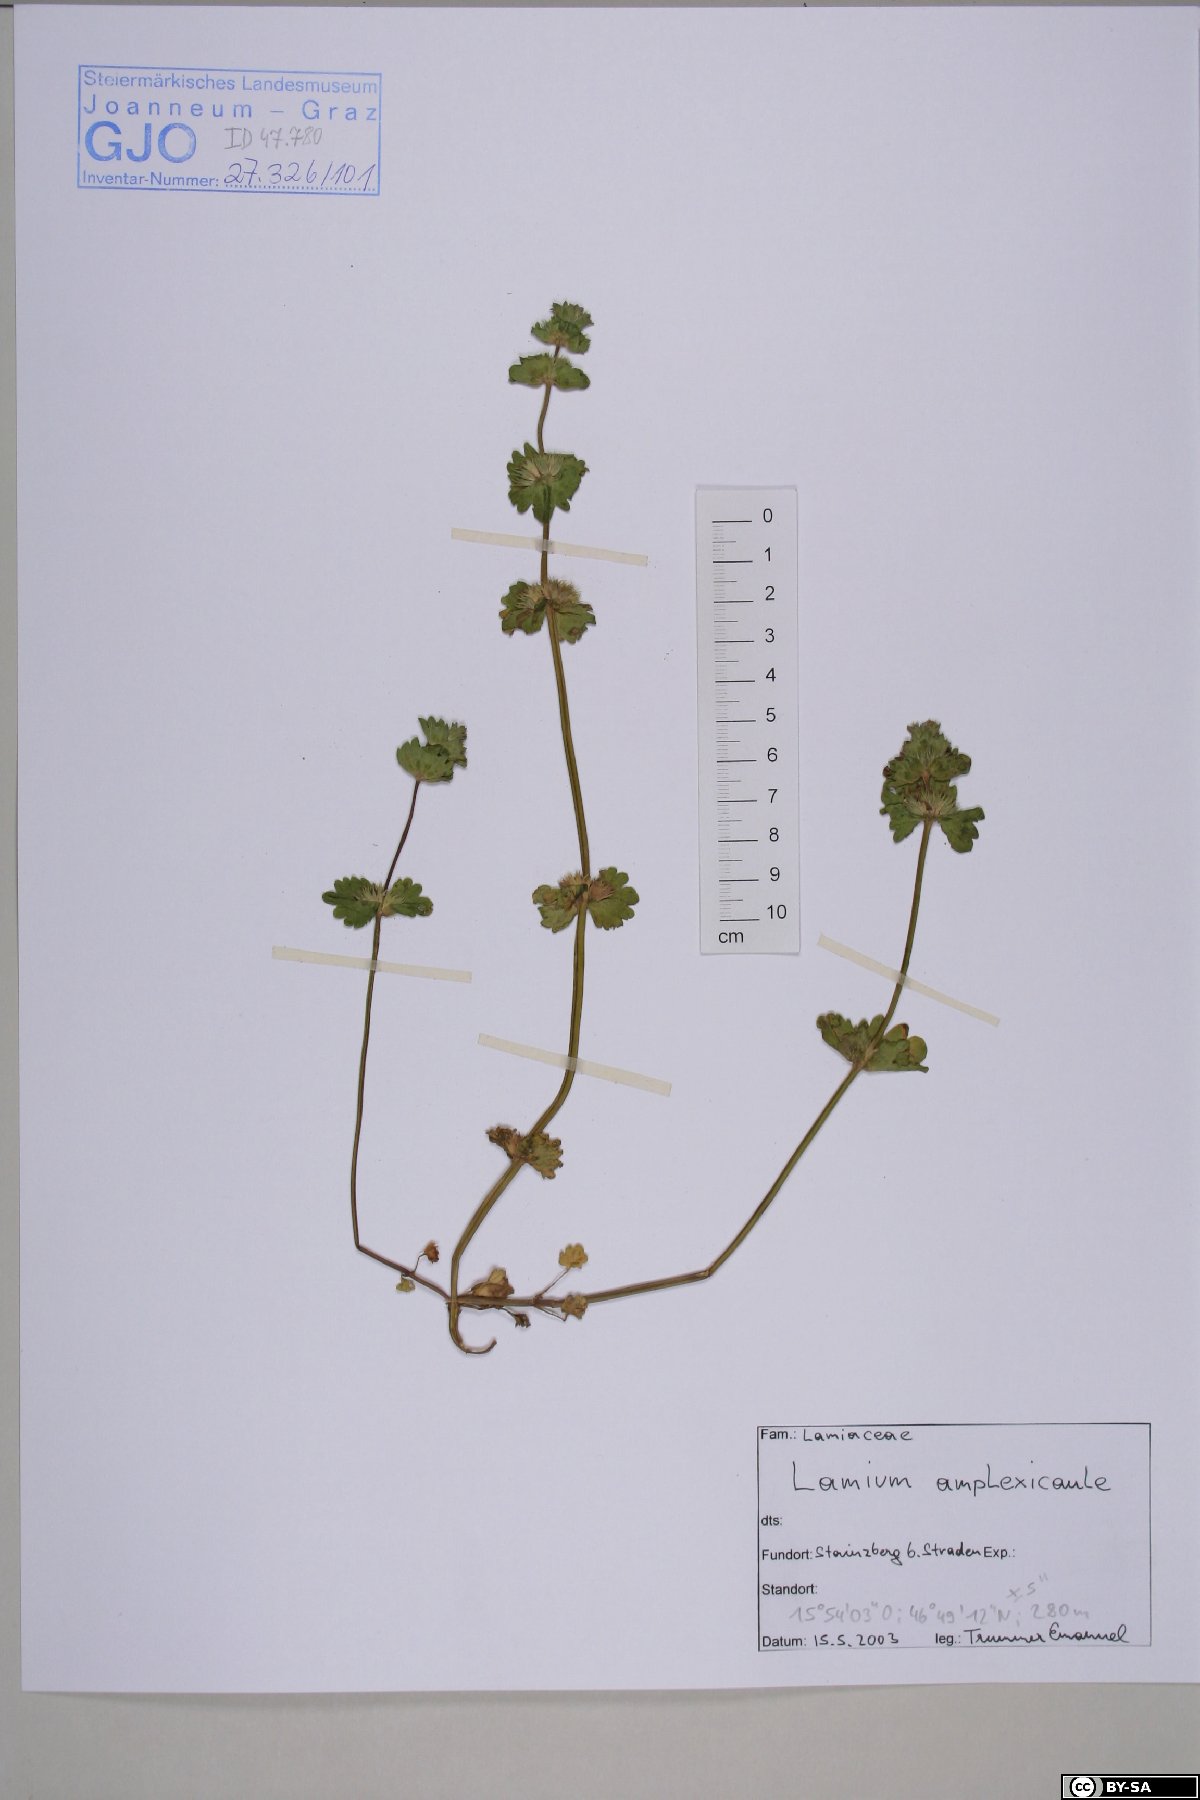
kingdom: Plantae
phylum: Tracheophyta
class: Magnoliopsida
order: Lamiales
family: Lamiaceae
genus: Lamium
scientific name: Lamium amplexicaule
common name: Henbit dead-nettle
